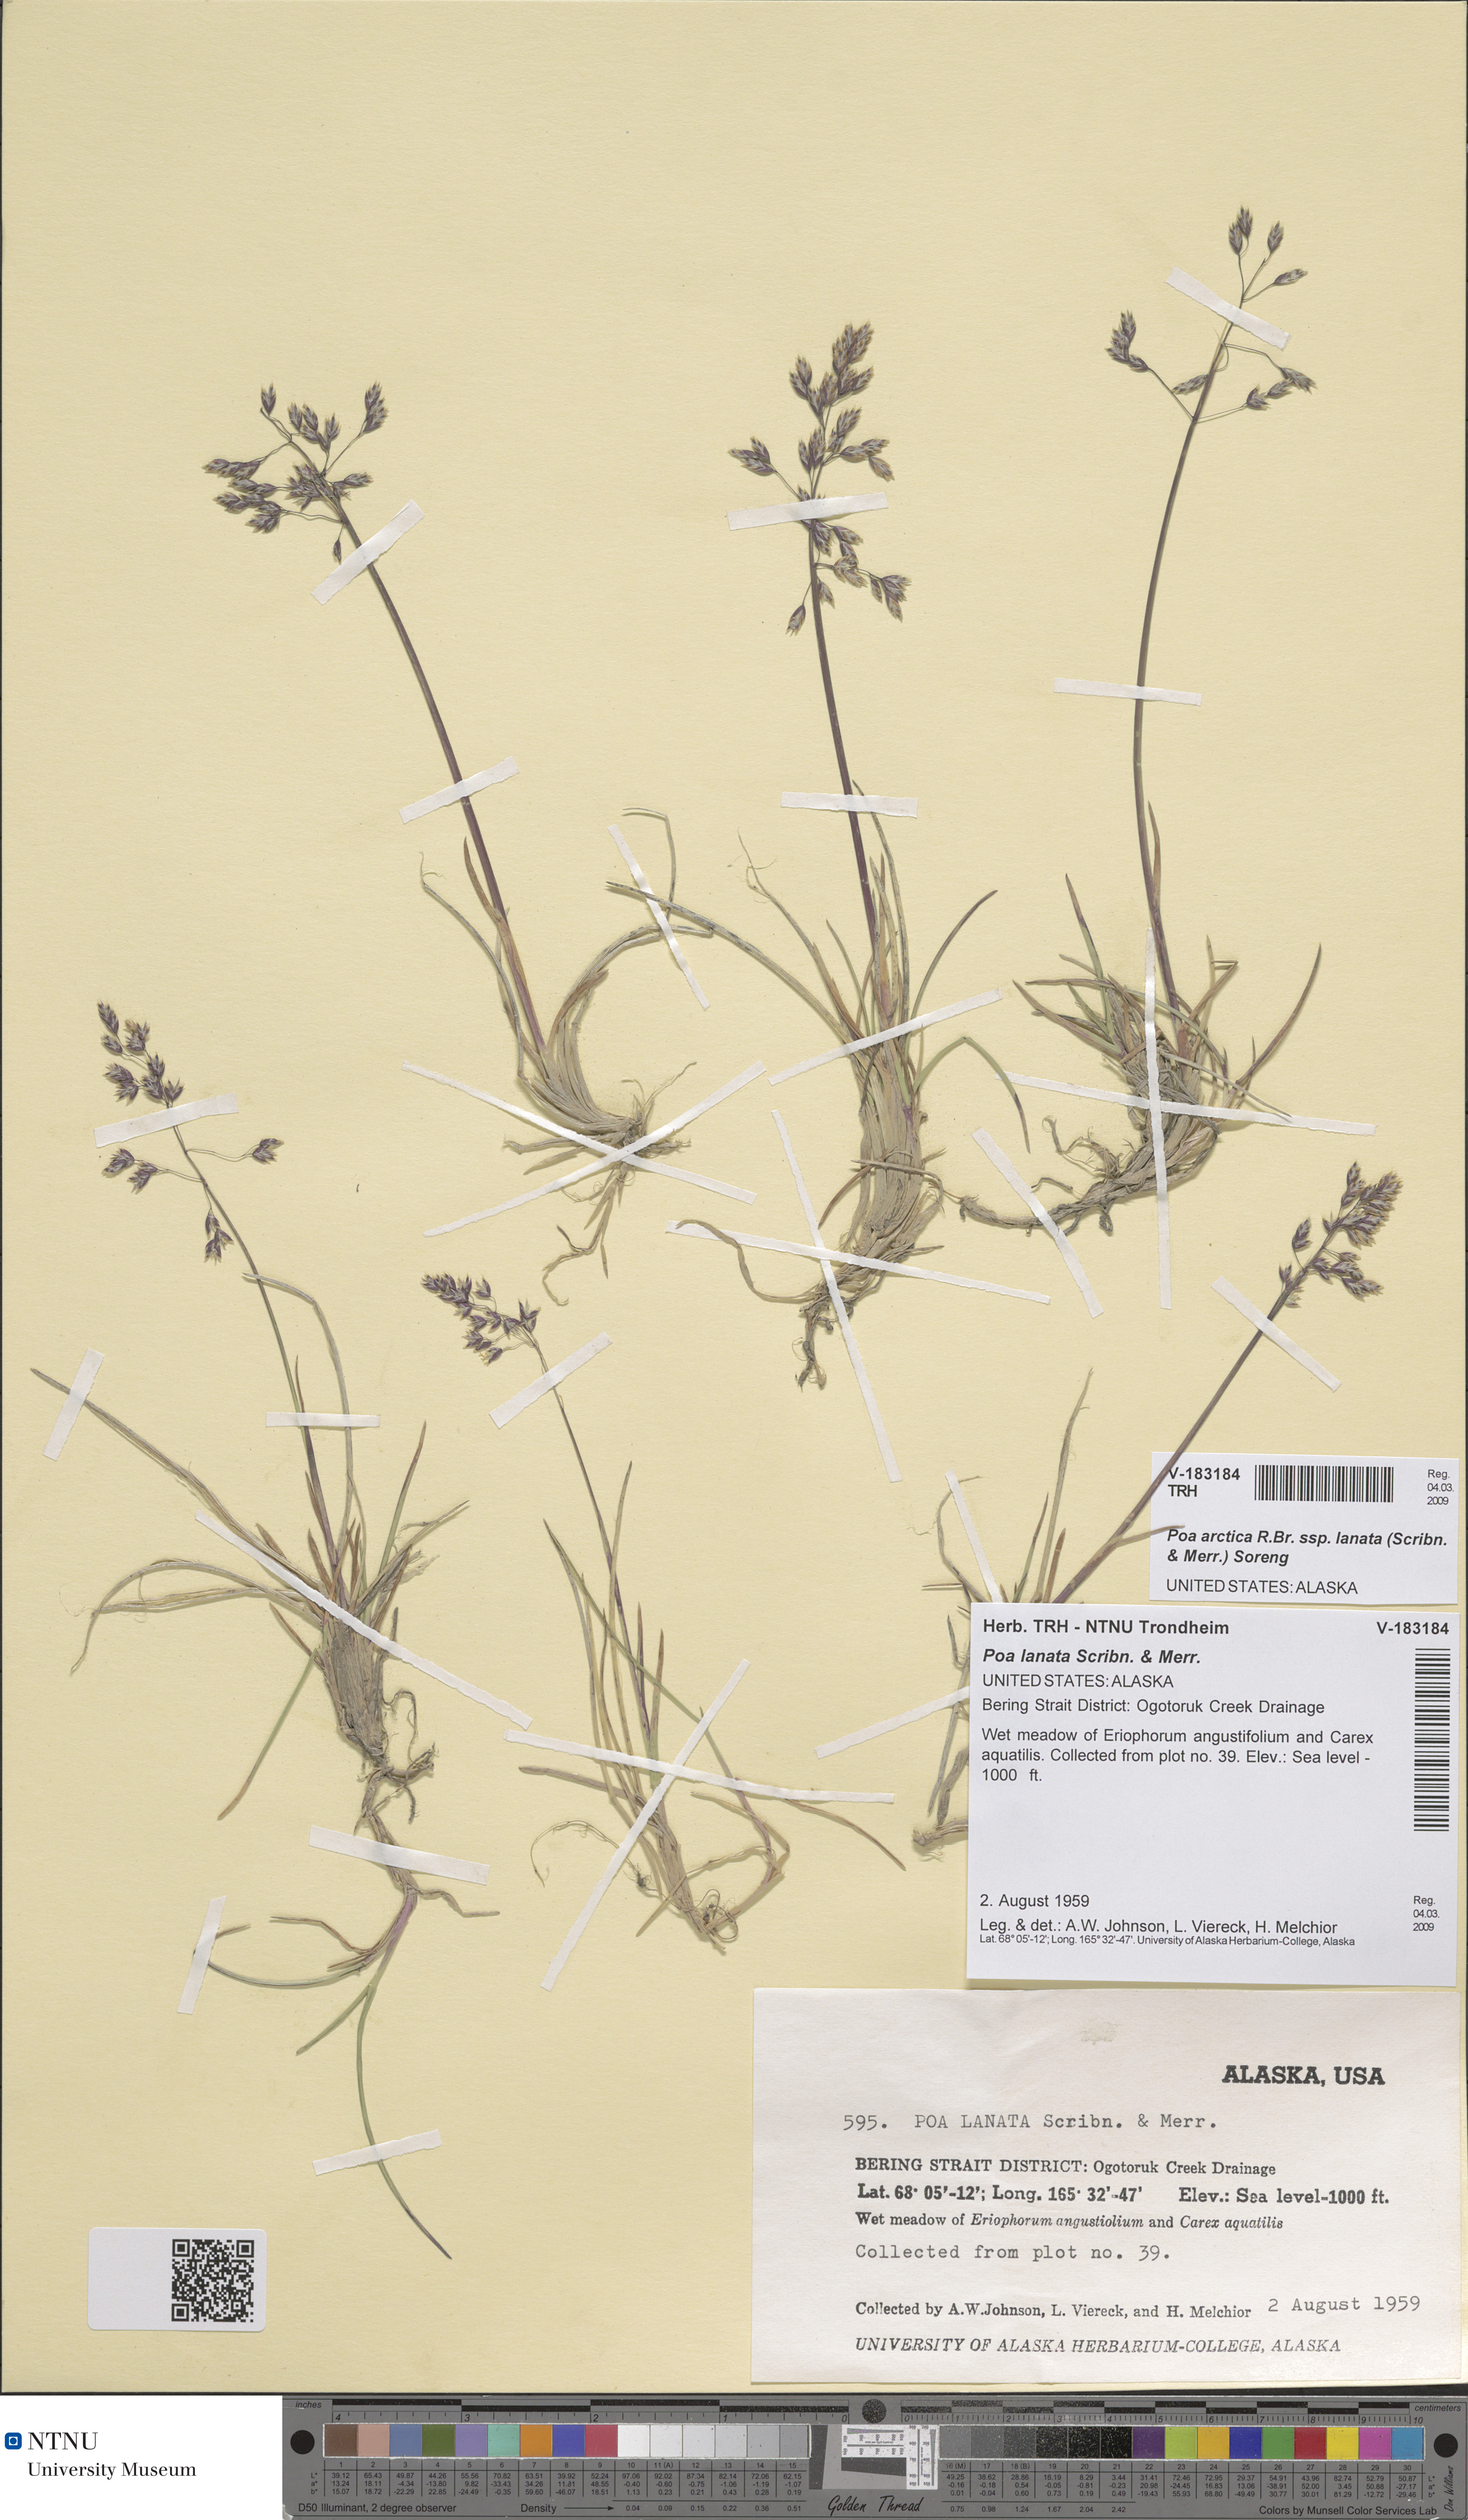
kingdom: Plantae
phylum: Tracheophyta
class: Liliopsida
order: Poales
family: Poaceae
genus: Poa
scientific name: Poa lanata
